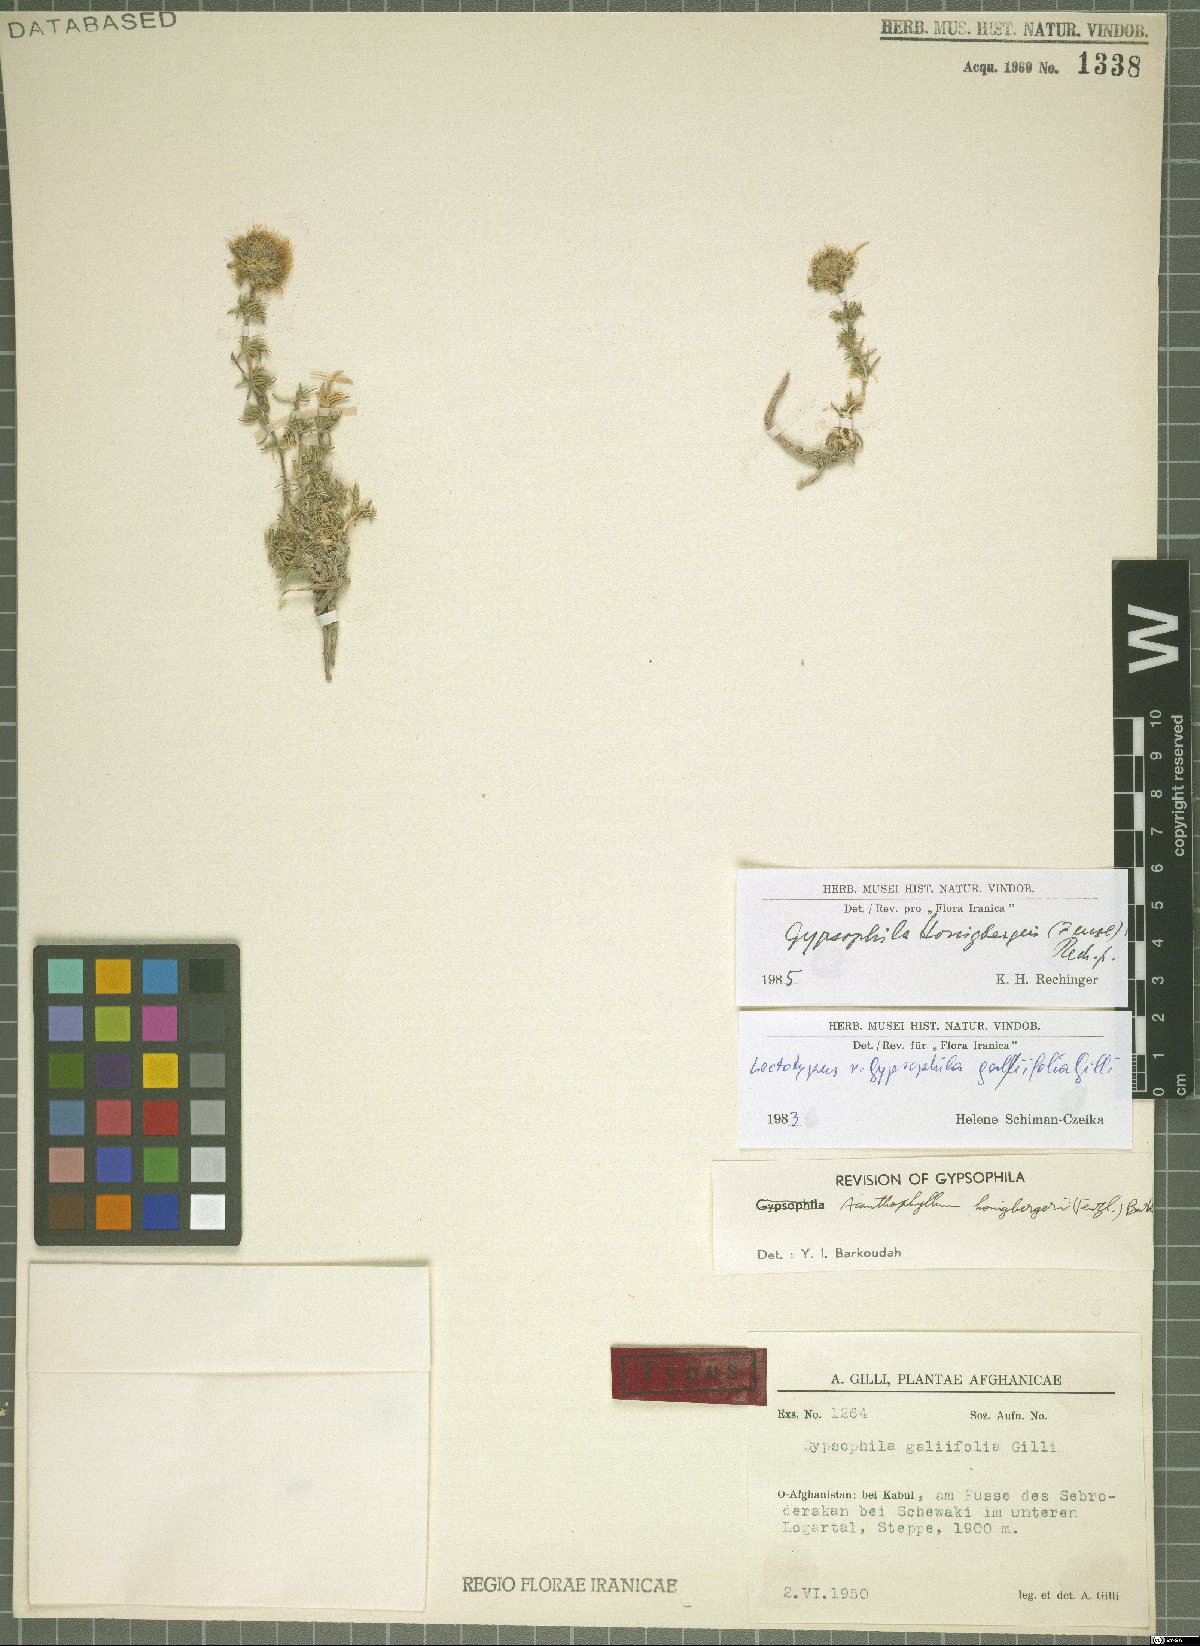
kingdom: Plantae
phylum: Tracheophyta
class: Magnoliopsida
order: Caryophyllales
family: Caryophyllaceae
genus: Acanthophyllum
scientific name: Acanthophyllum honigbergeri
